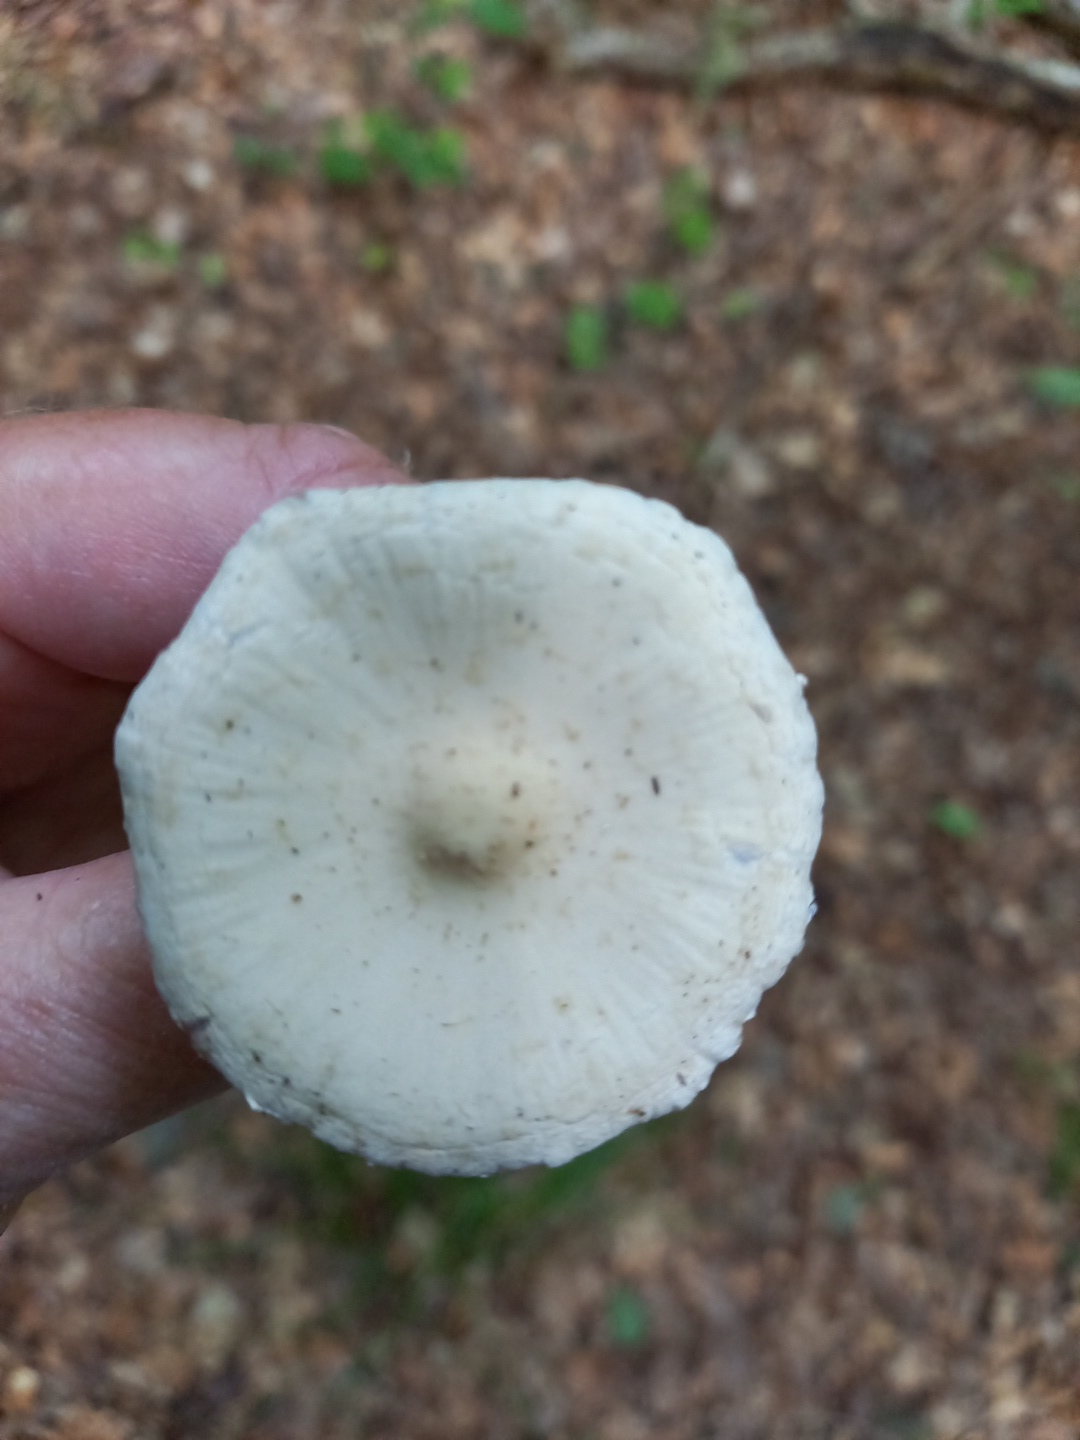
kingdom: Fungi
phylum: Basidiomycota
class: Agaricomycetes
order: Agaricales
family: Psathyrellaceae
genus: Candolleomyces
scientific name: Candolleomyces candolleanus
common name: Candolles mørkhat
